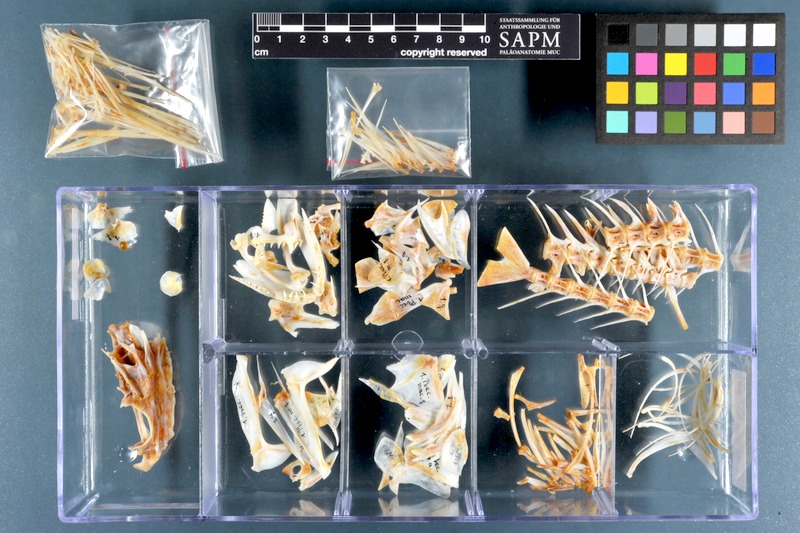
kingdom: Animalia
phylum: Chordata
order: Perciformes
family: Serranidae
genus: Plectropomus
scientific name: Plectropomus maculatus
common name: Spotted coralgrouper
